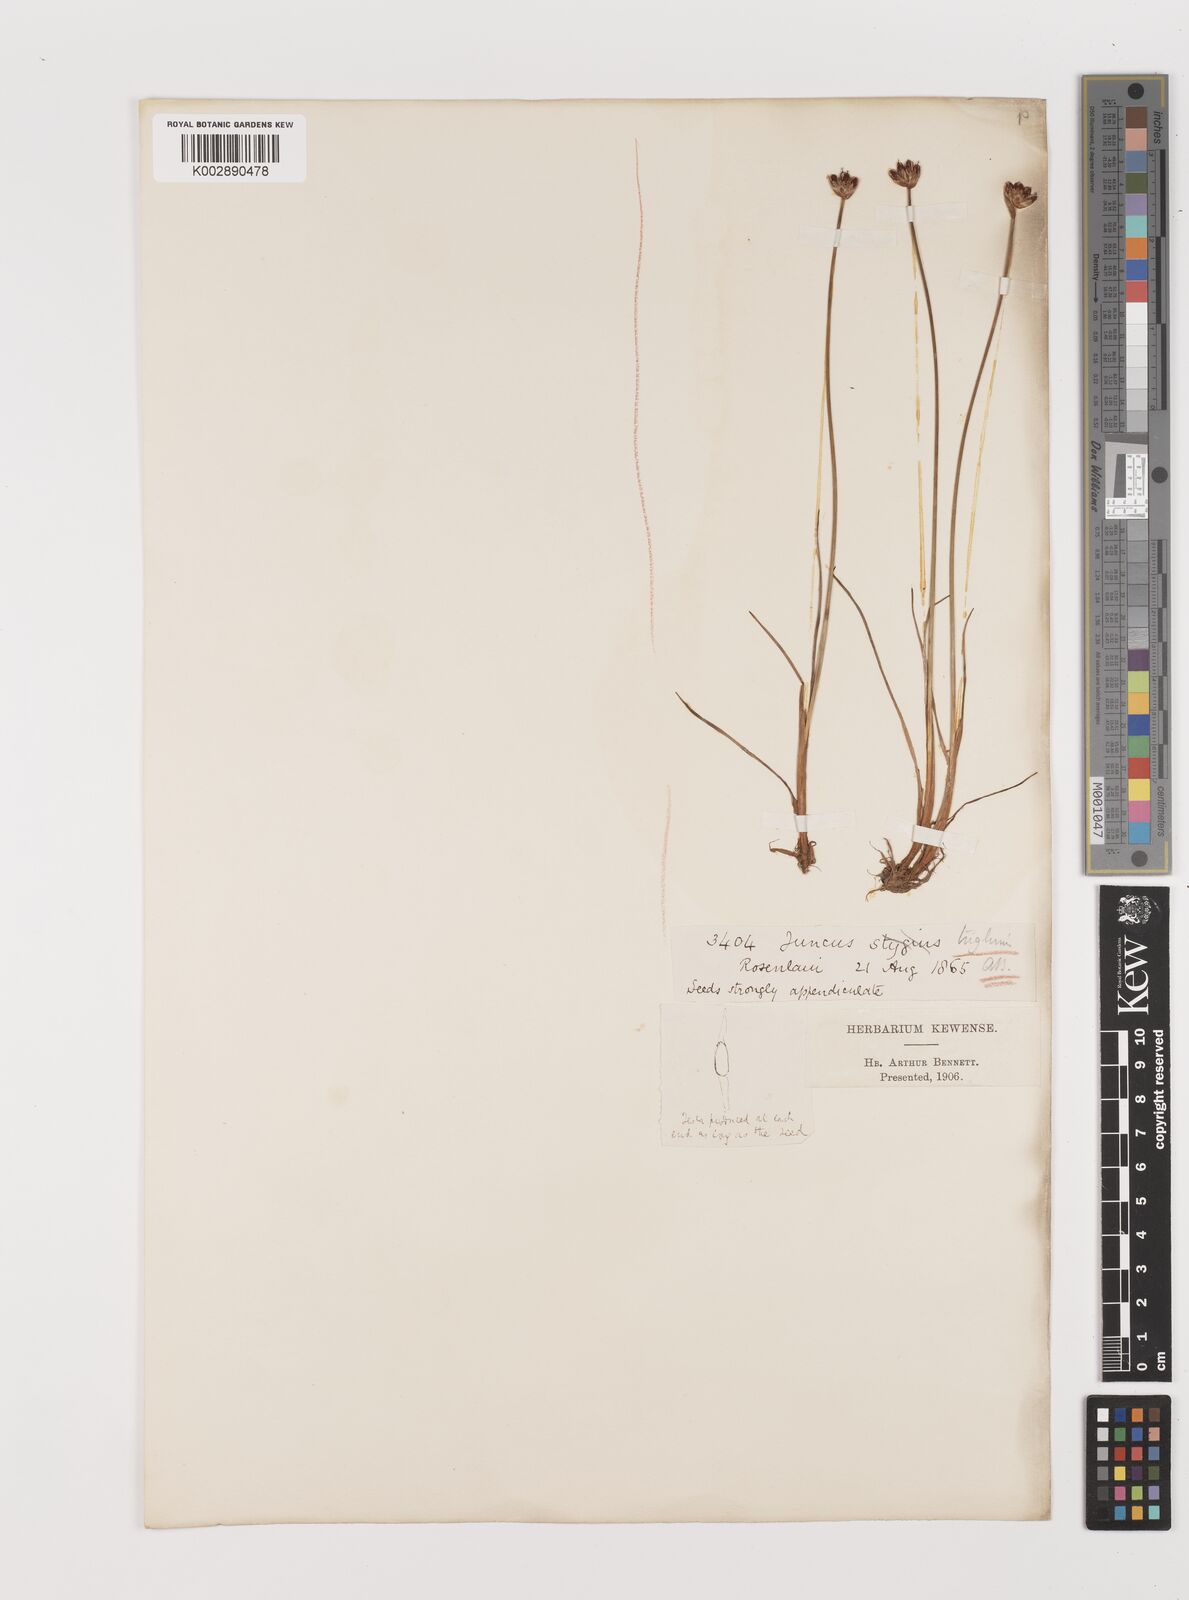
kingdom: Plantae
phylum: Tracheophyta
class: Liliopsida
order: Poales
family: Juncaceae
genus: Juncus
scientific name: Juncus triglumis
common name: Three-flowered rush
